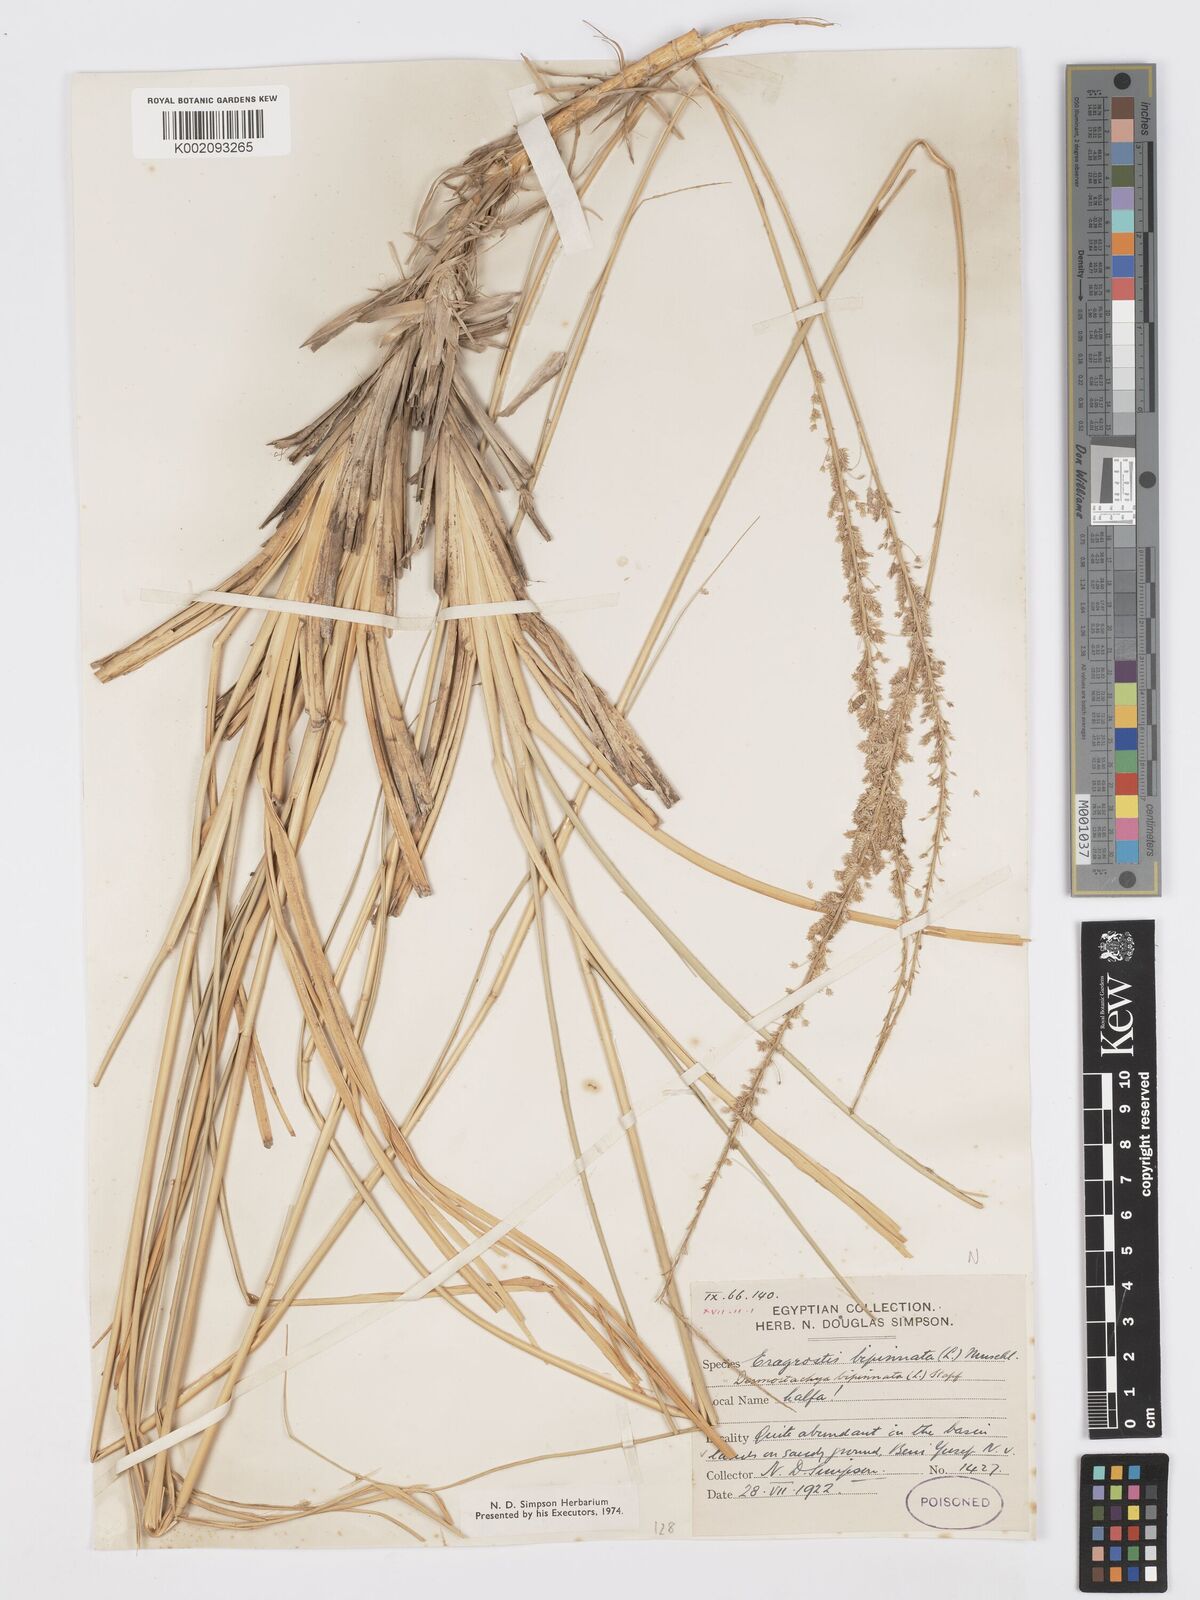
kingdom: Plantae
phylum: Tracheophyta
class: Liliopsida
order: Poales
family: Poaceae
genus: Desmostachya
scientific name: Desmostachya bipinnata
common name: Crowfoot grass
